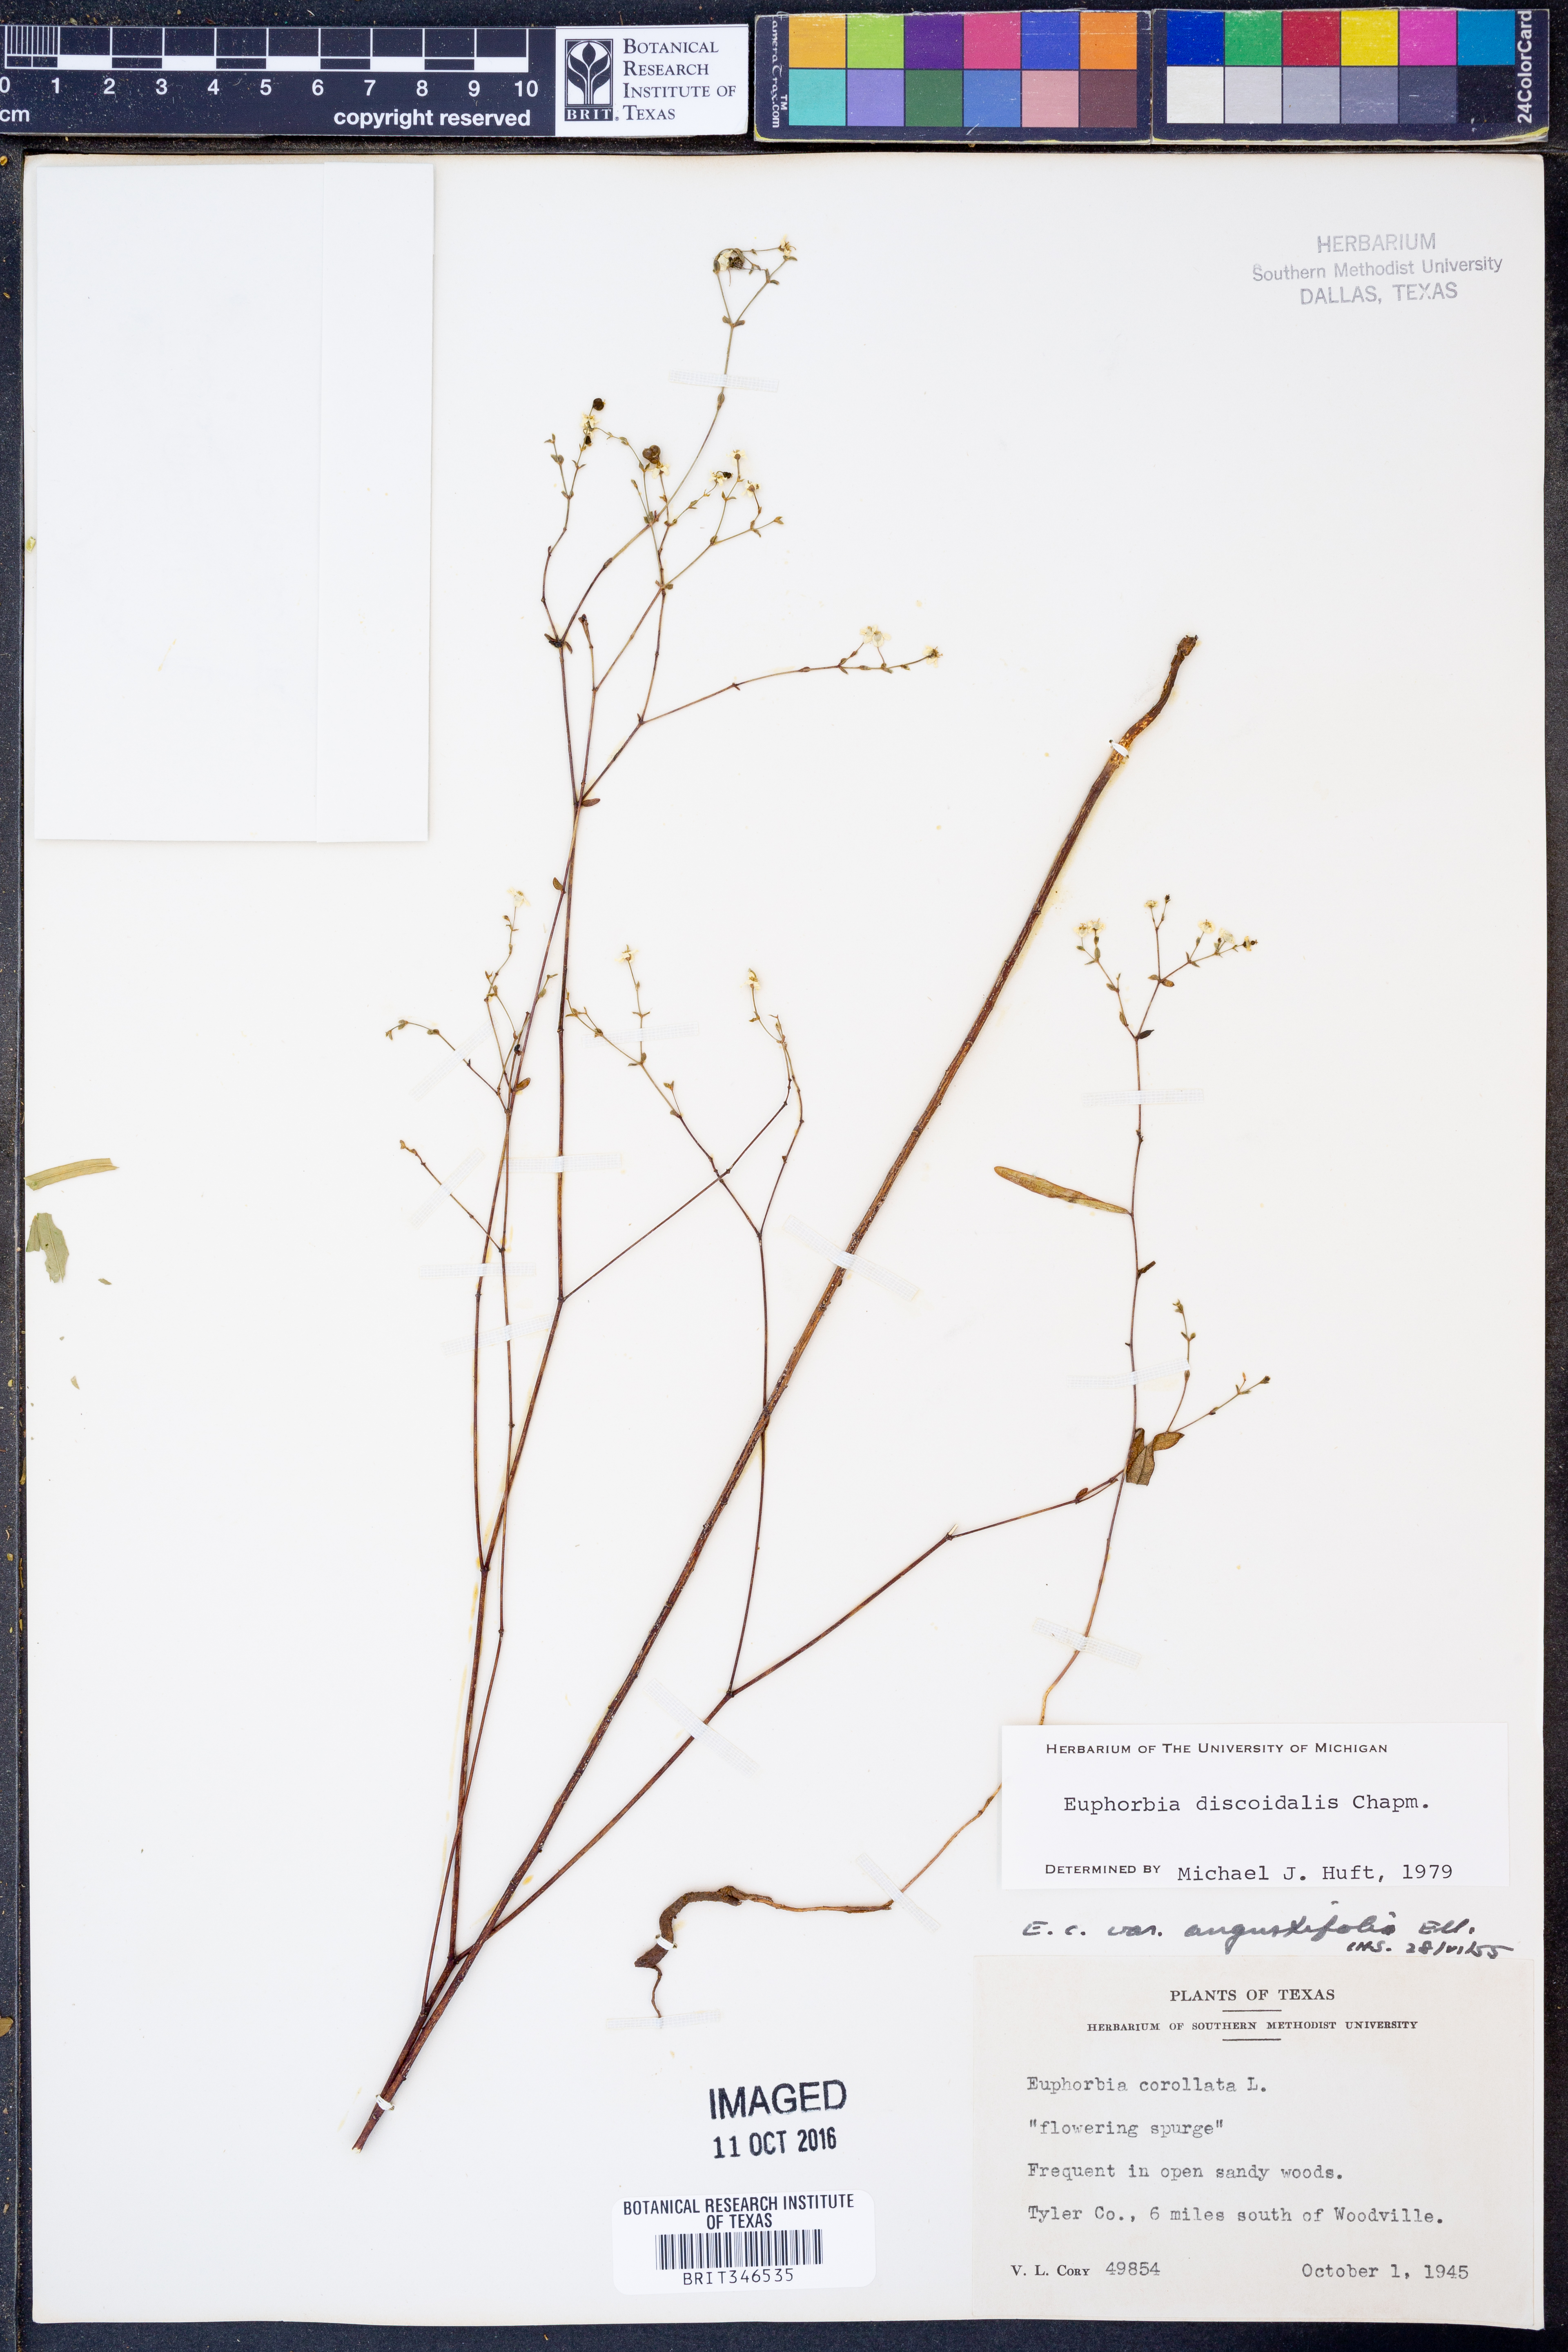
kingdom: Plantae
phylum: Tracheophyta
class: Magnoliopsida
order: Malpighiales
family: Euphorbiaceae
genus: Euphorbia
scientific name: Euphorbia discoidalis
